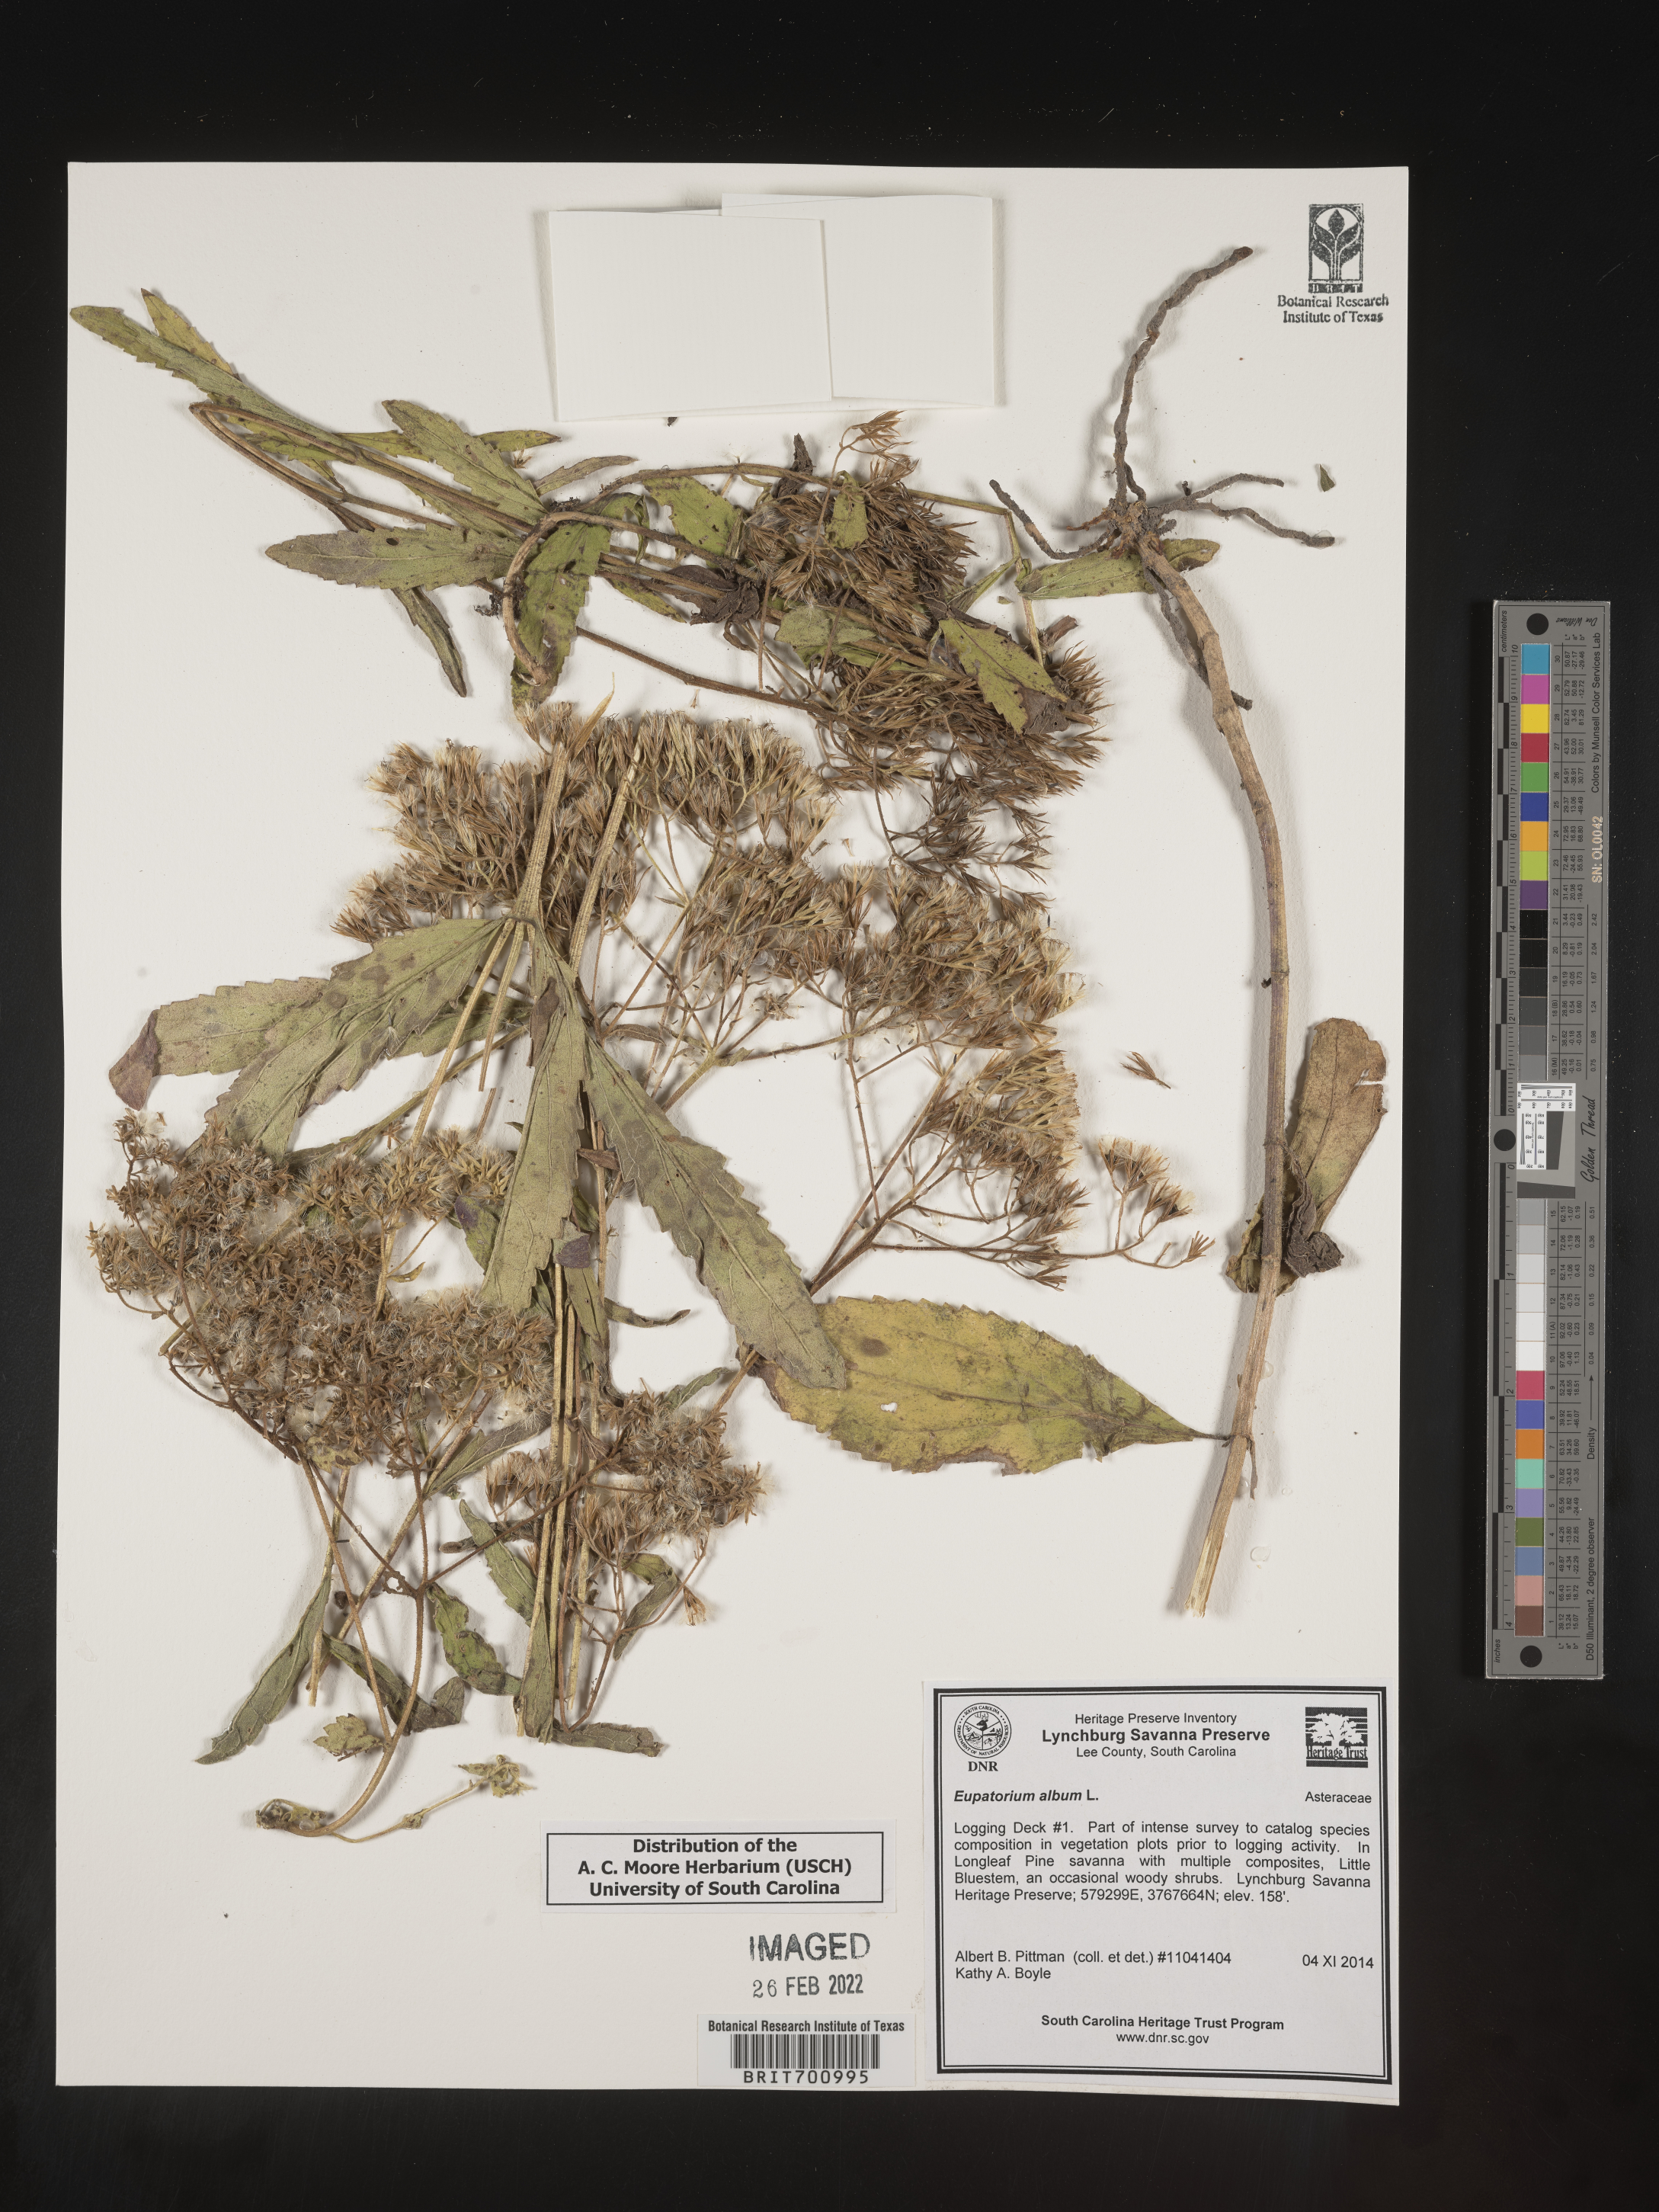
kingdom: Plantae
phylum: Tracheophyta
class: Magnoliopsida
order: Asterales
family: Asteraceae
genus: Eupatorium
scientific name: Eupatorium album
